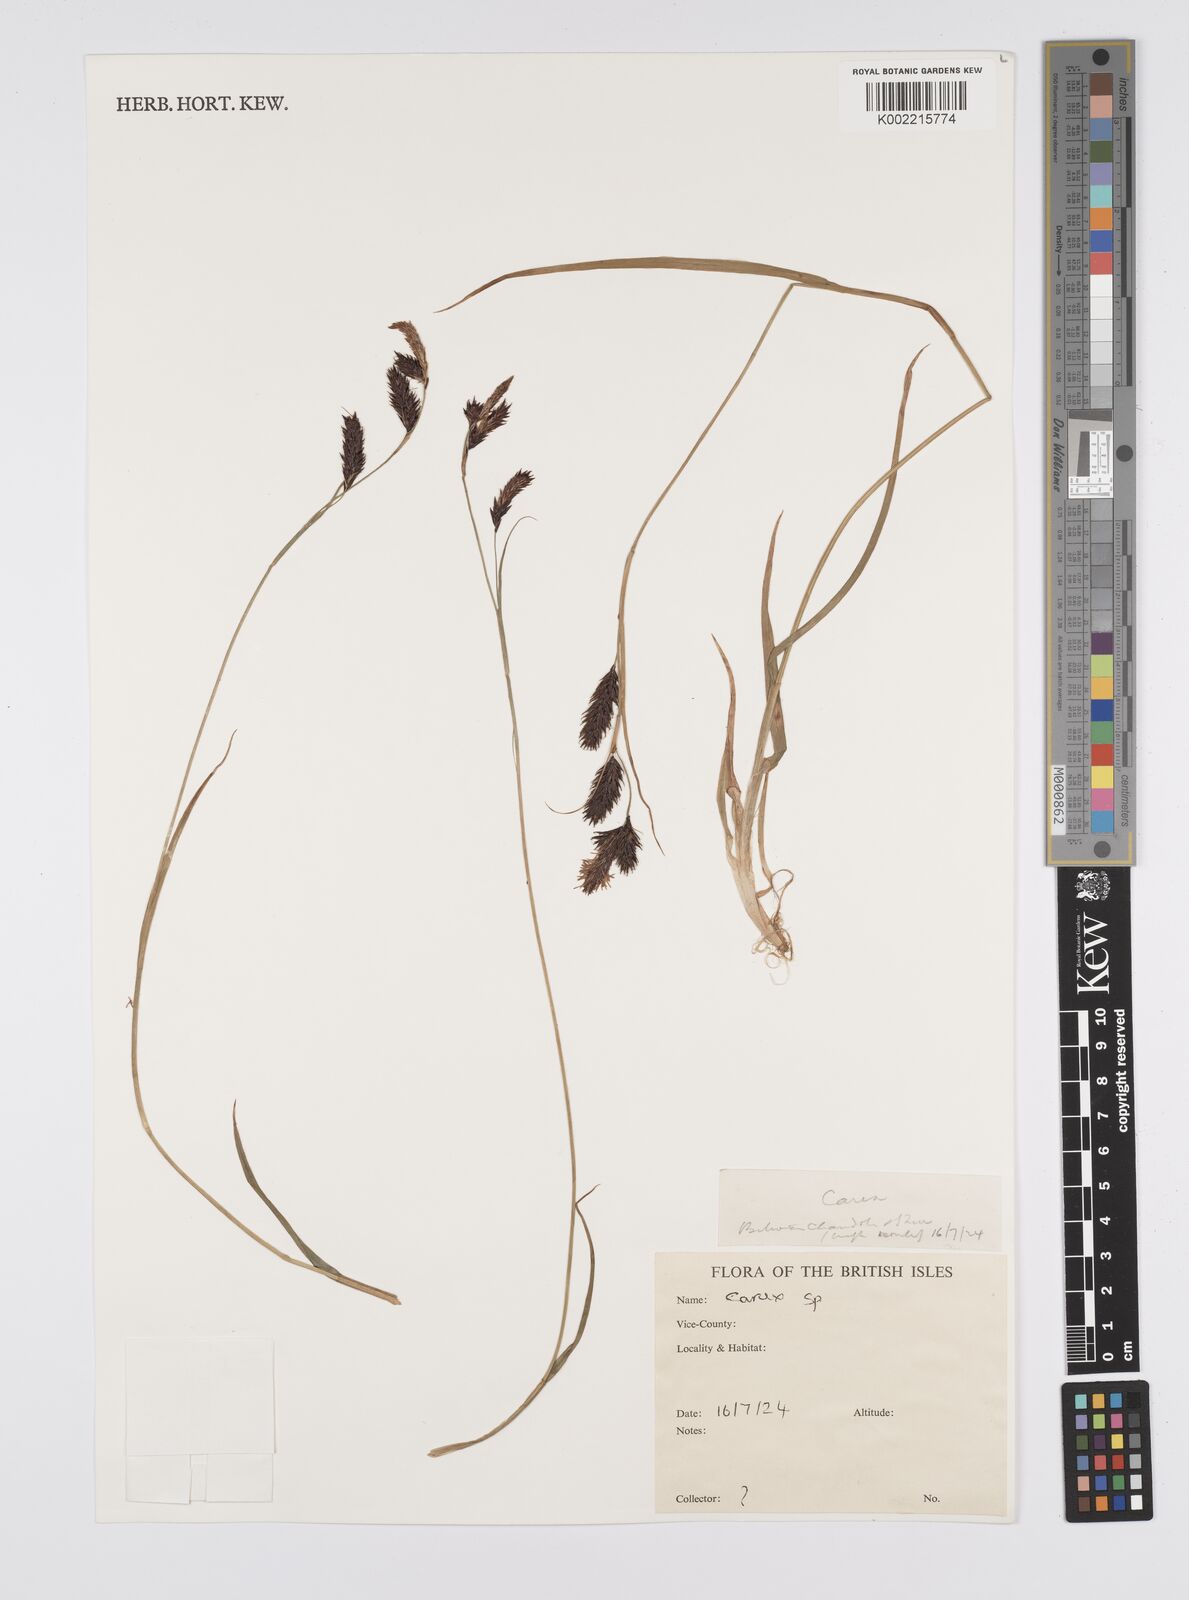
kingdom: Plantae
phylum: Tracheophyta
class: Liliopsida
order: Poales
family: Cyperaceae
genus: Carex
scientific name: Carex
